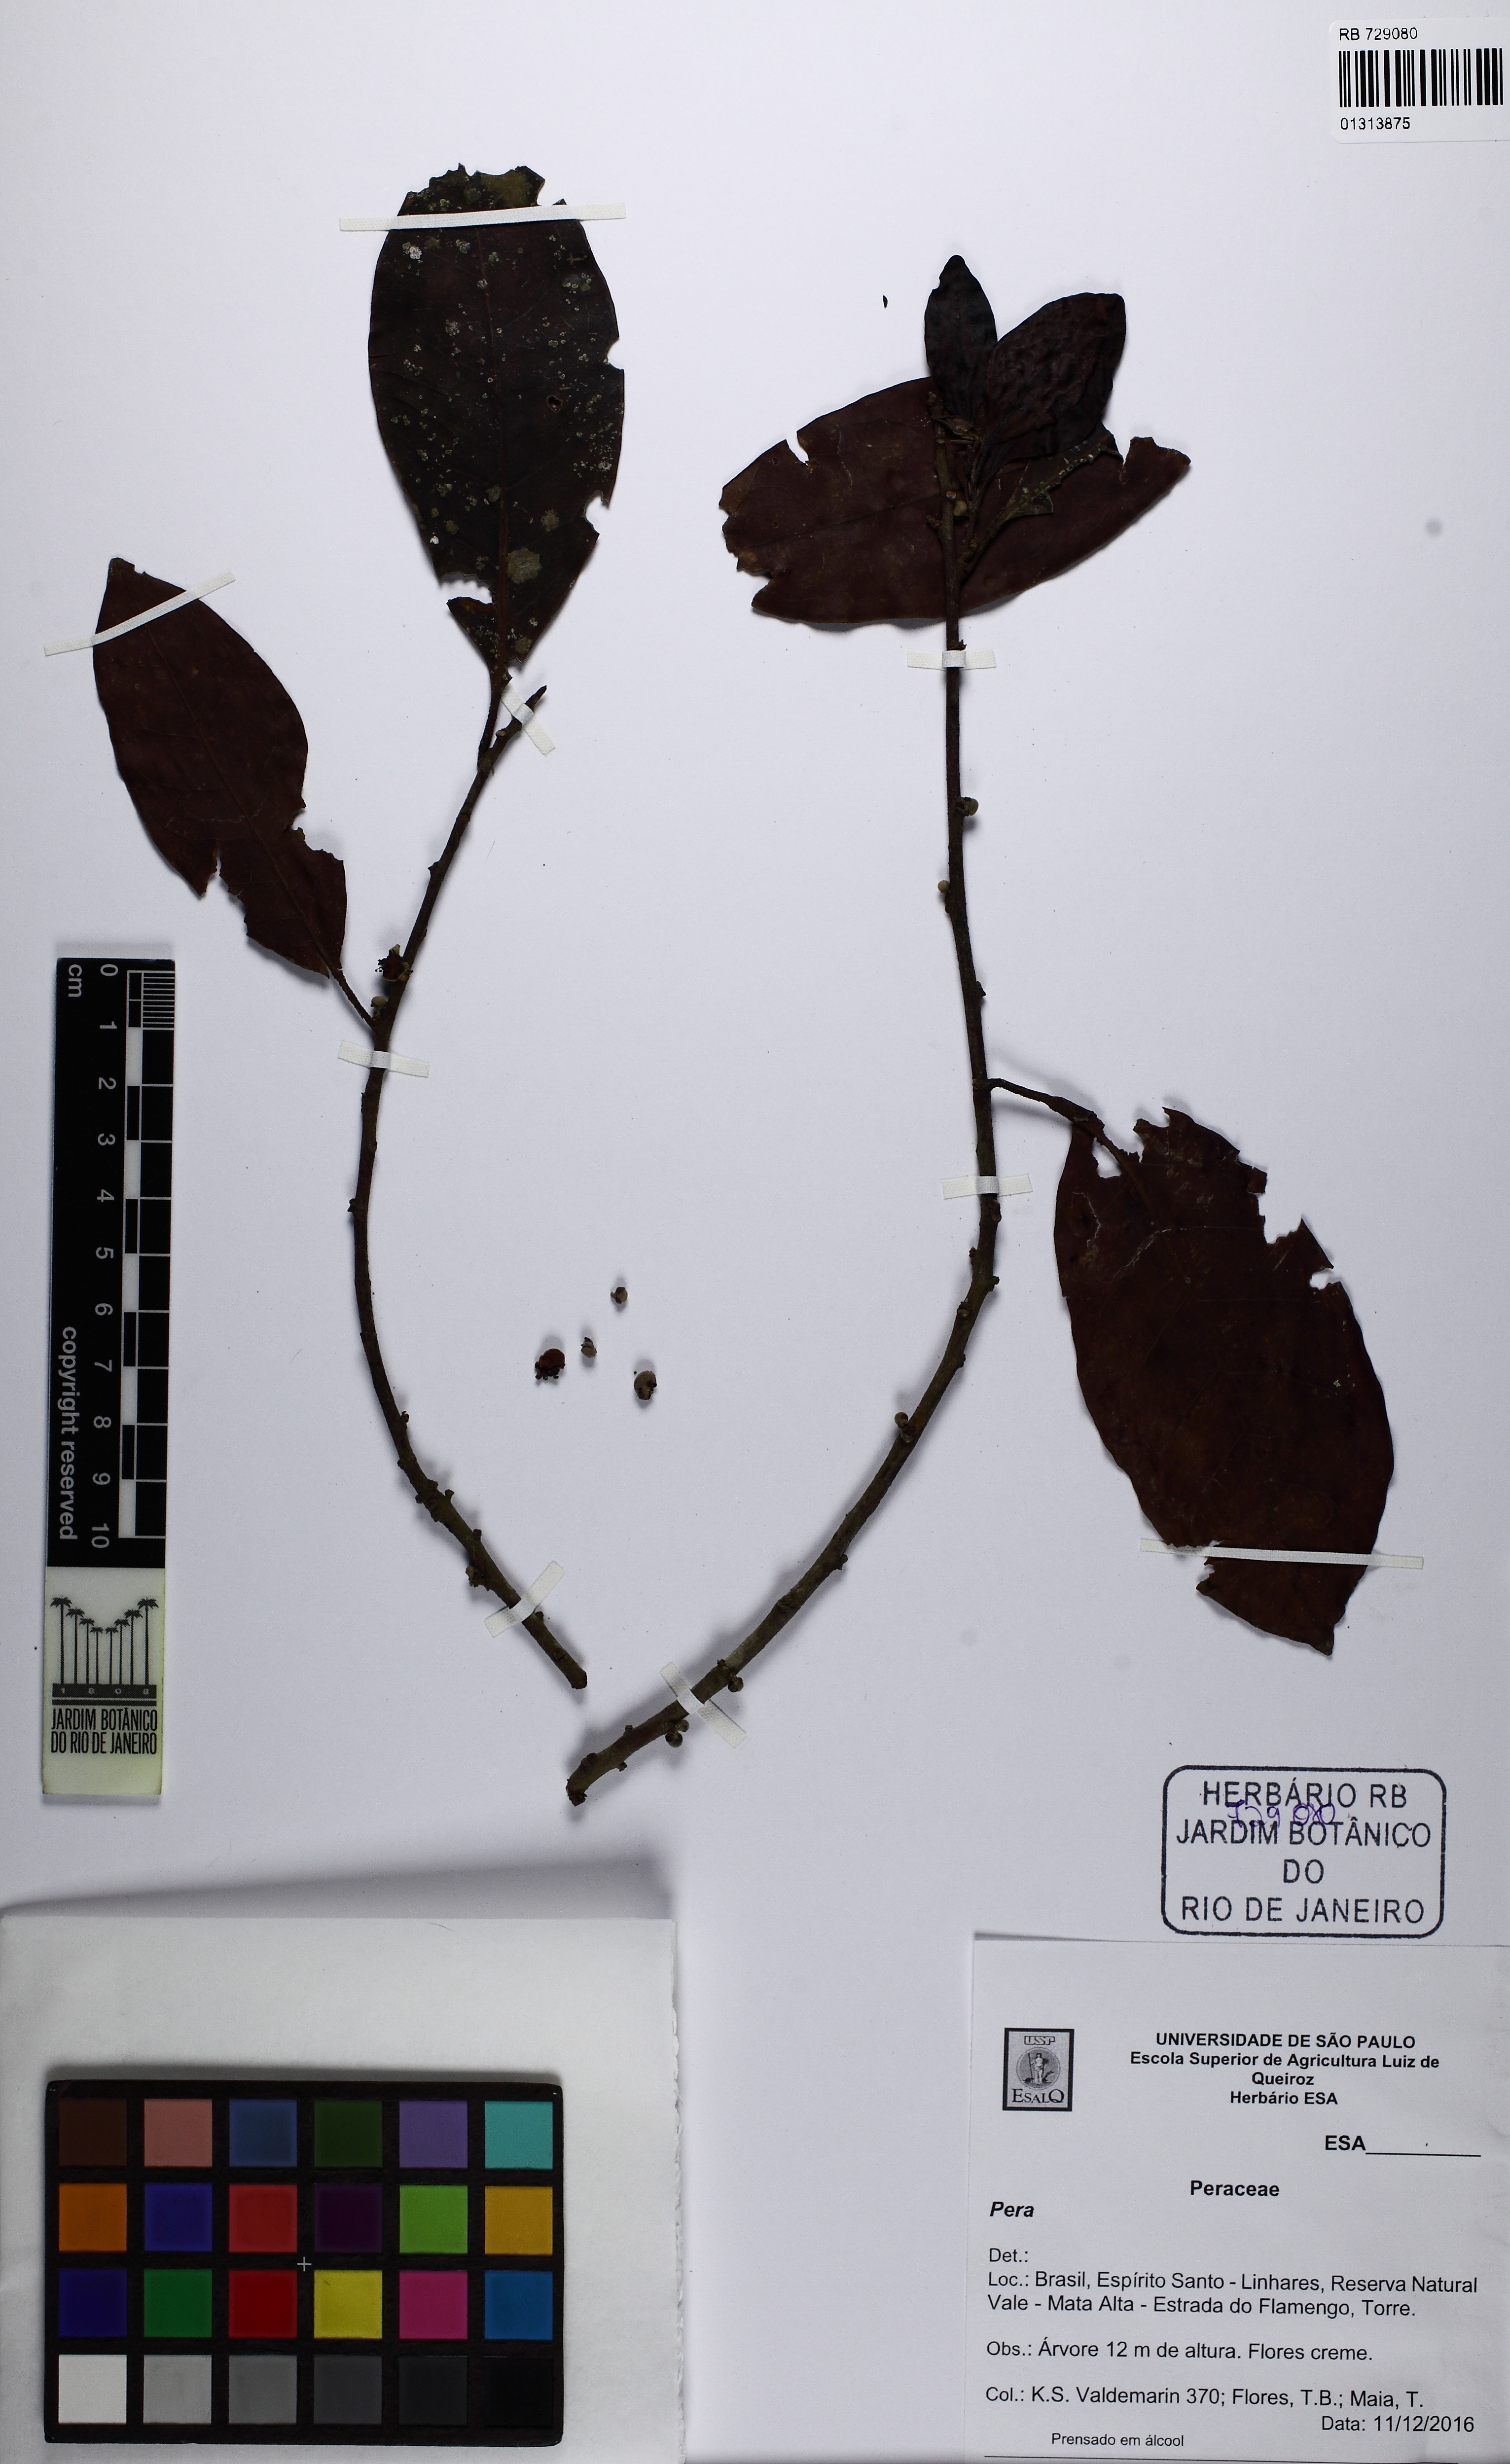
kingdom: Plantae
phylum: Tracheophyta
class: Magnoliopsida
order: Malpighiales
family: Peraceae
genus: Pera
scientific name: Pera furfuracea
